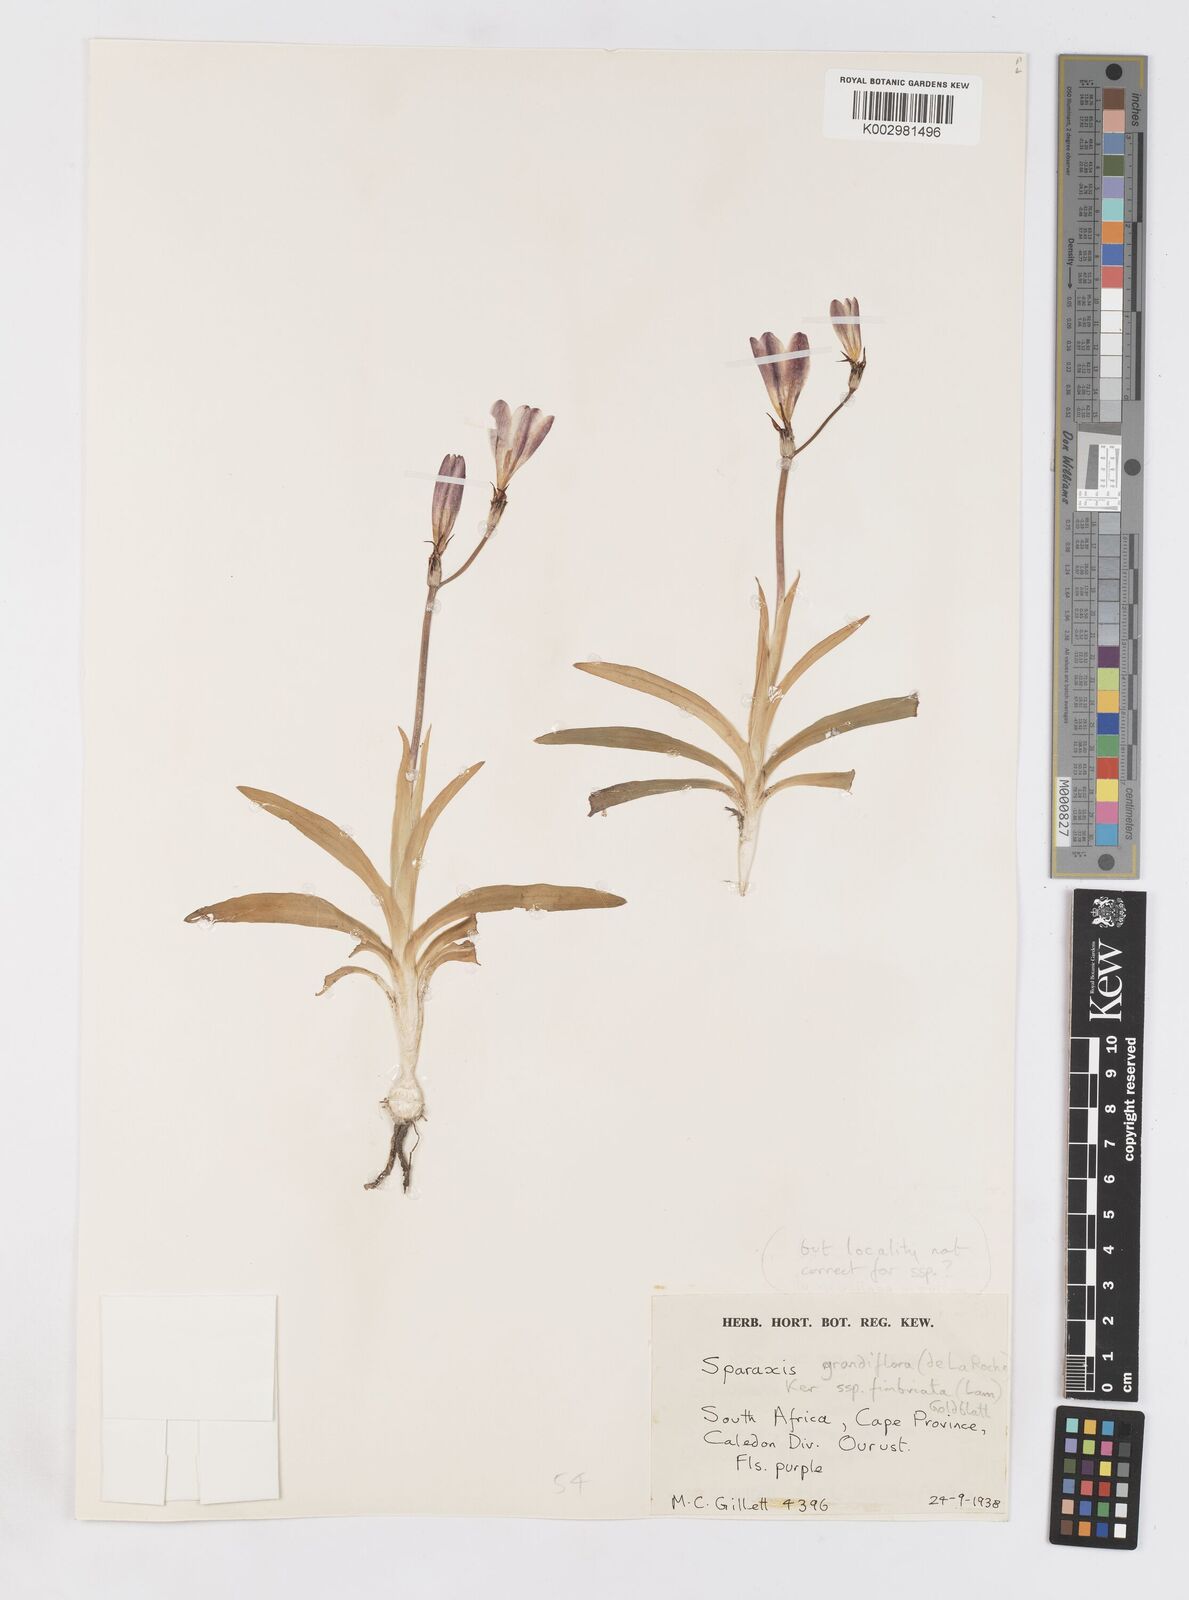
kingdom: Plantae
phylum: Tracheophyta
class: Liliopsida
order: Asparagales
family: Iridaceae
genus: Sparaxis
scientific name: Sparaxis grandiflora
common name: Plain harlequin-flower
